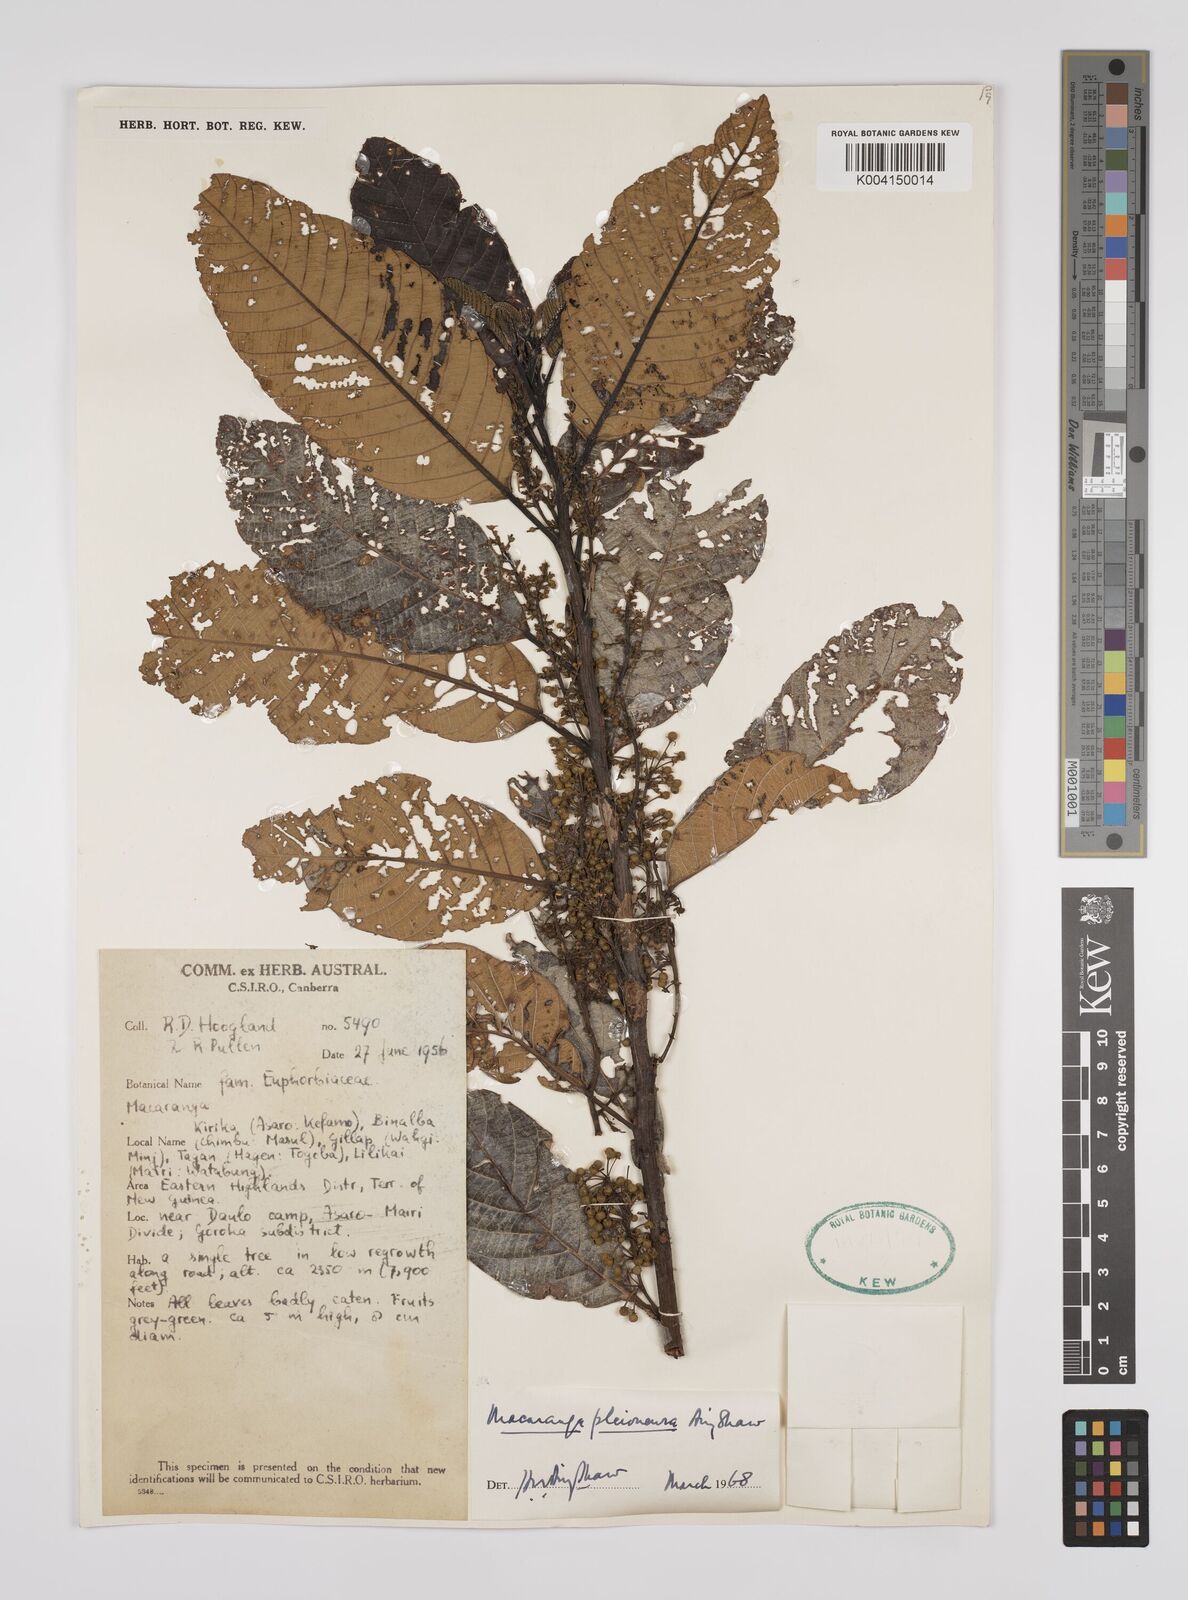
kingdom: Plantae
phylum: Tracheophyta
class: Magnoliopsida
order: Malpighiales
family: Euphorbiaceae
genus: Macaranga
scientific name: Macaranga pleioneura
